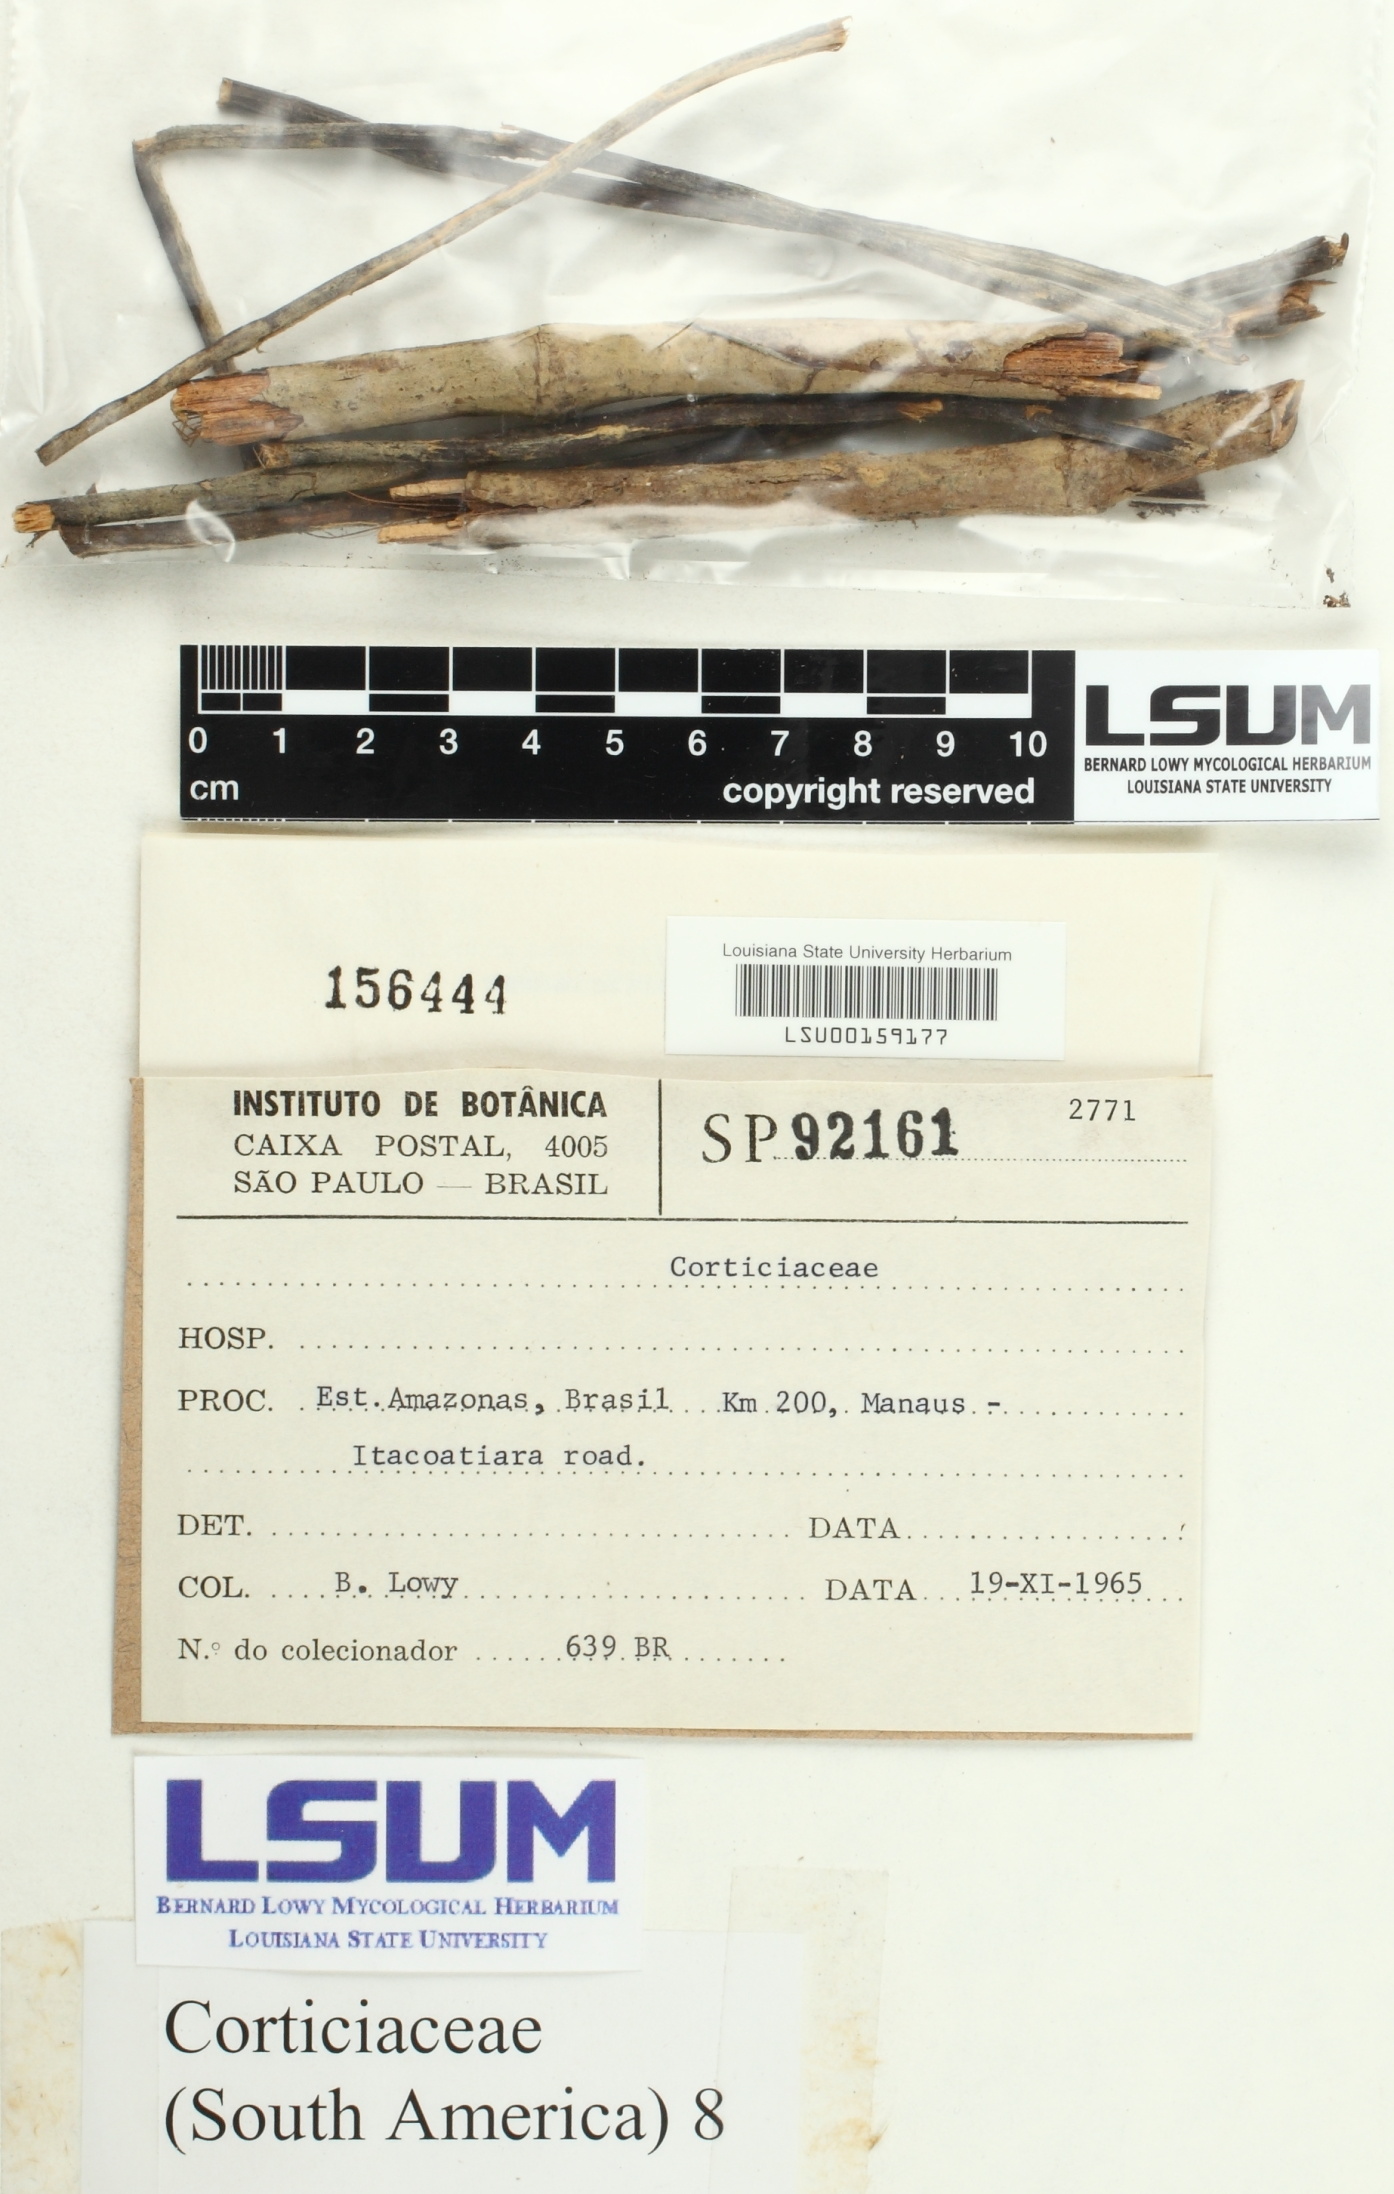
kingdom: Fungi
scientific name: Fungi
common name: Fungi
